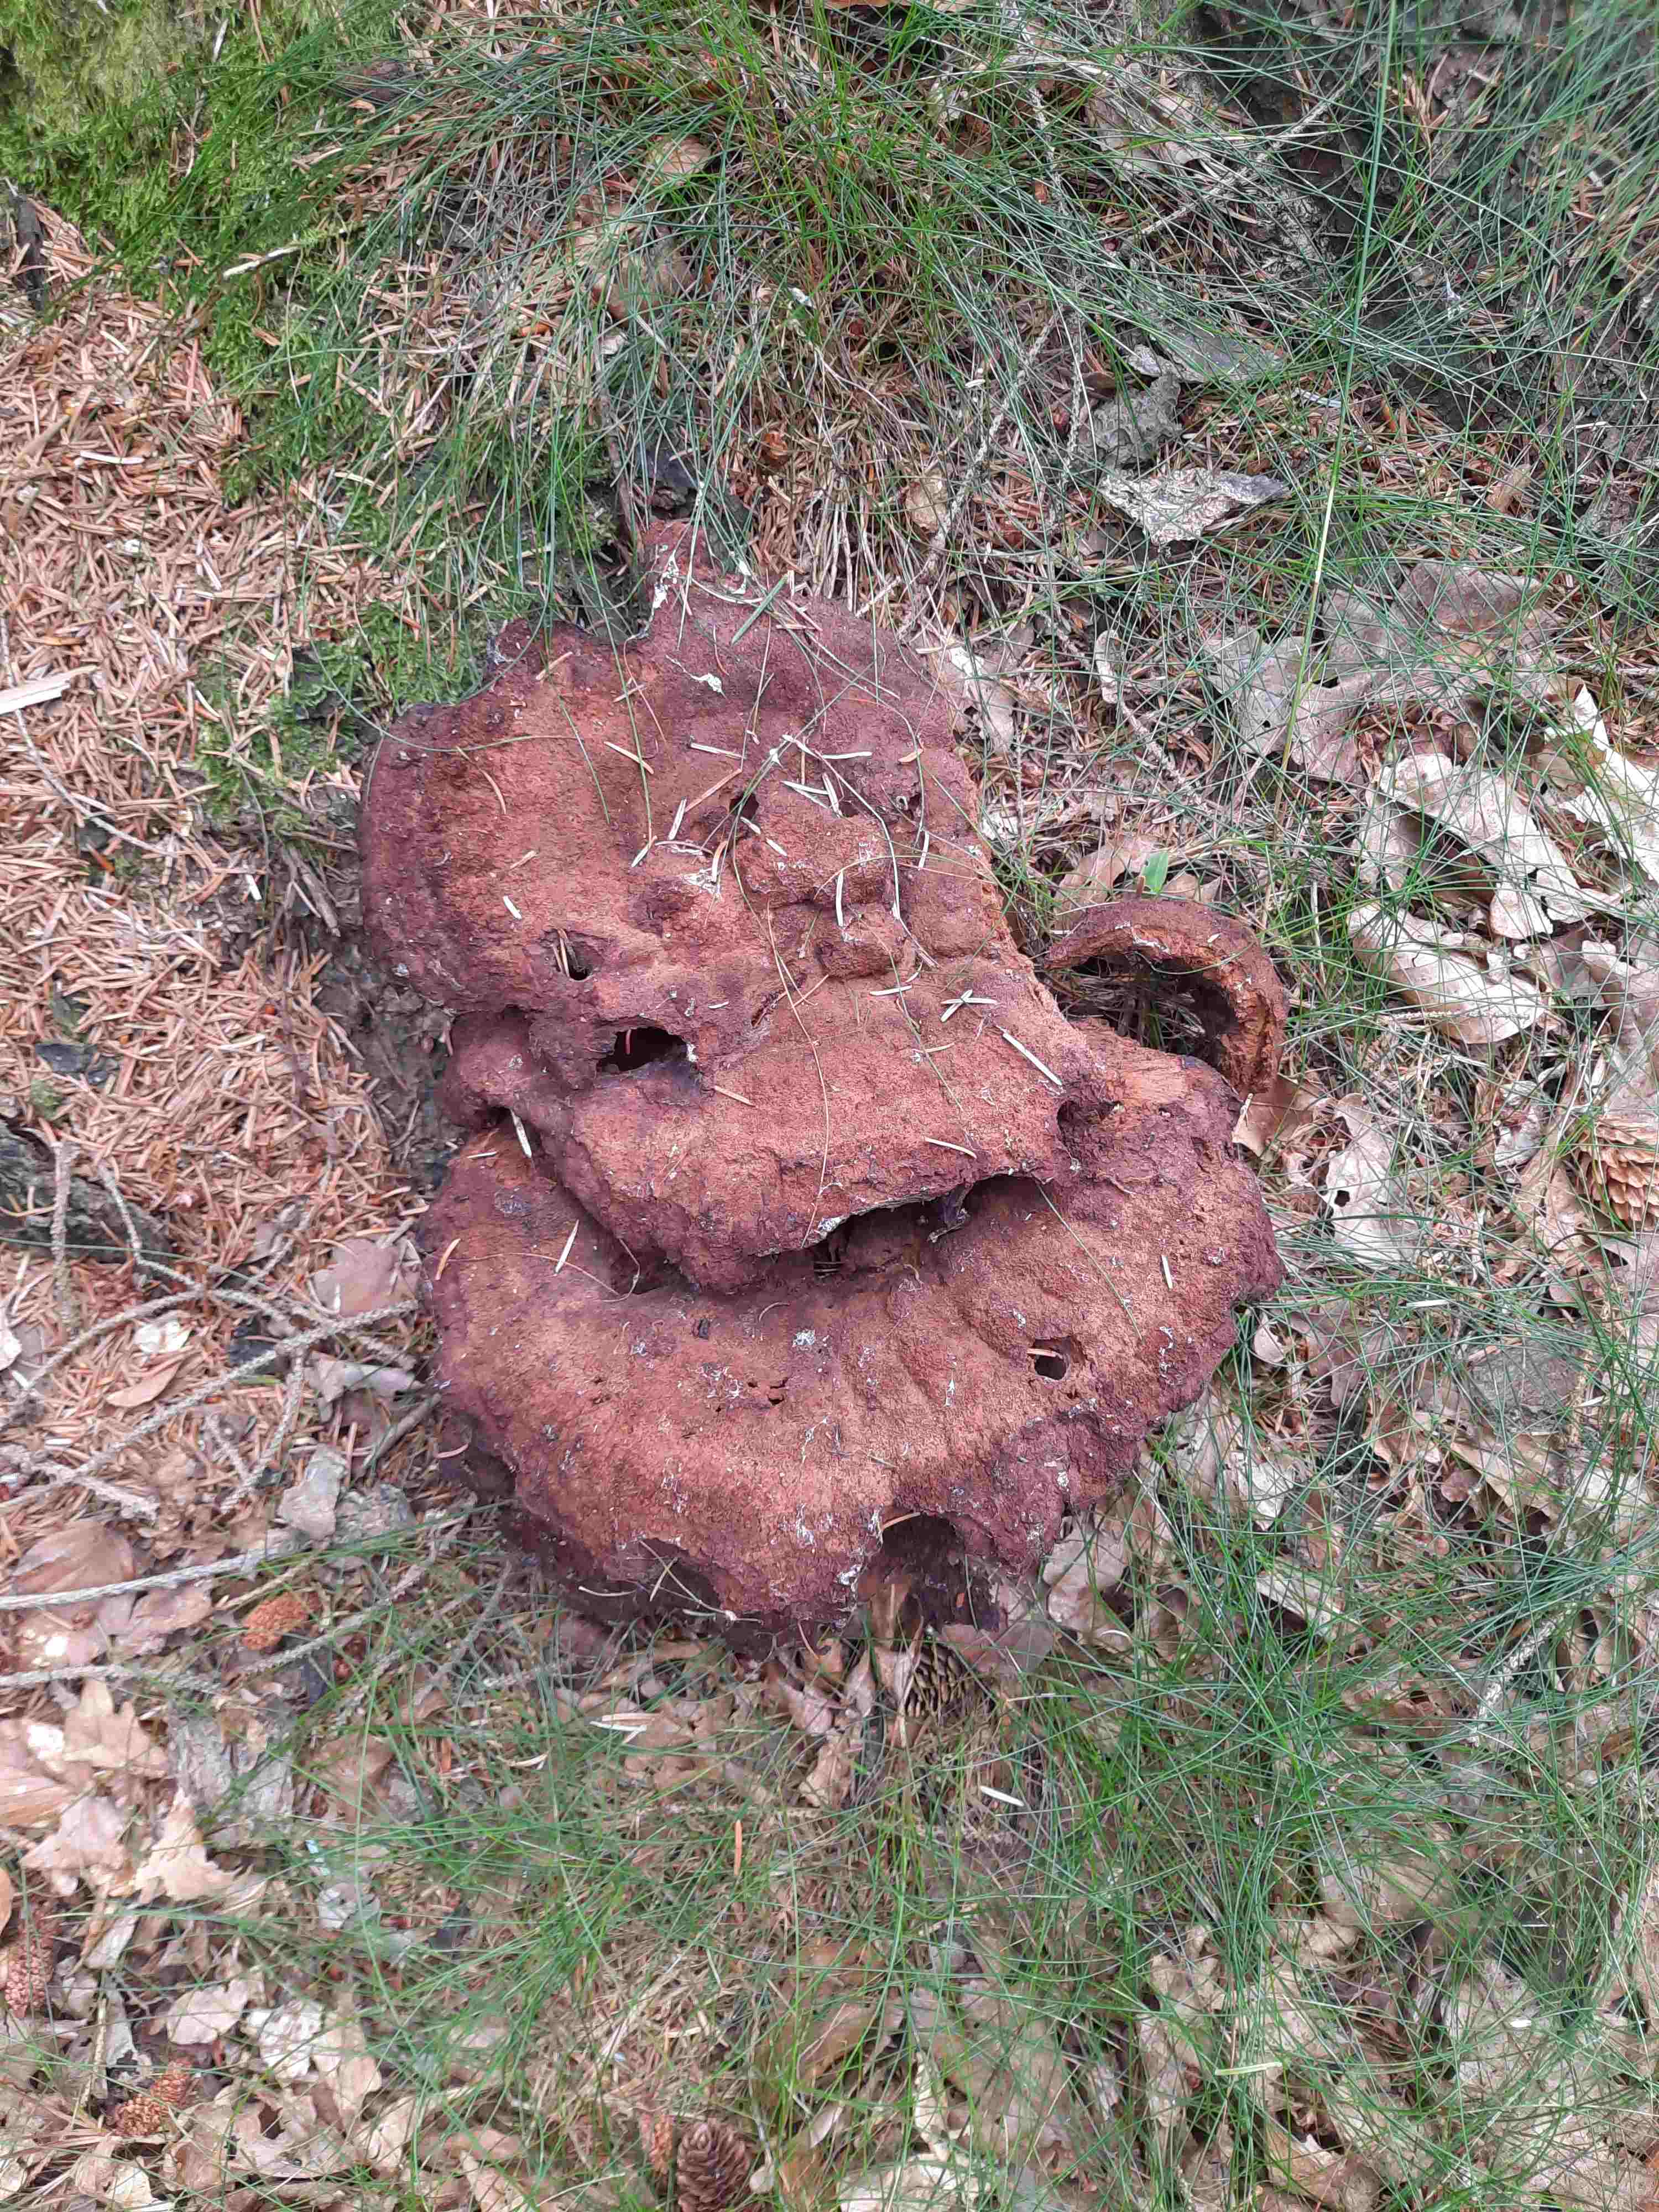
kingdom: Fungi
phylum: Basidiomycota
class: Agaricomycetes
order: Polyporales
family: Laetiporaceae
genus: Phaeolus
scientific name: Phaeolus schweinitzii
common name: brunporesvamp
